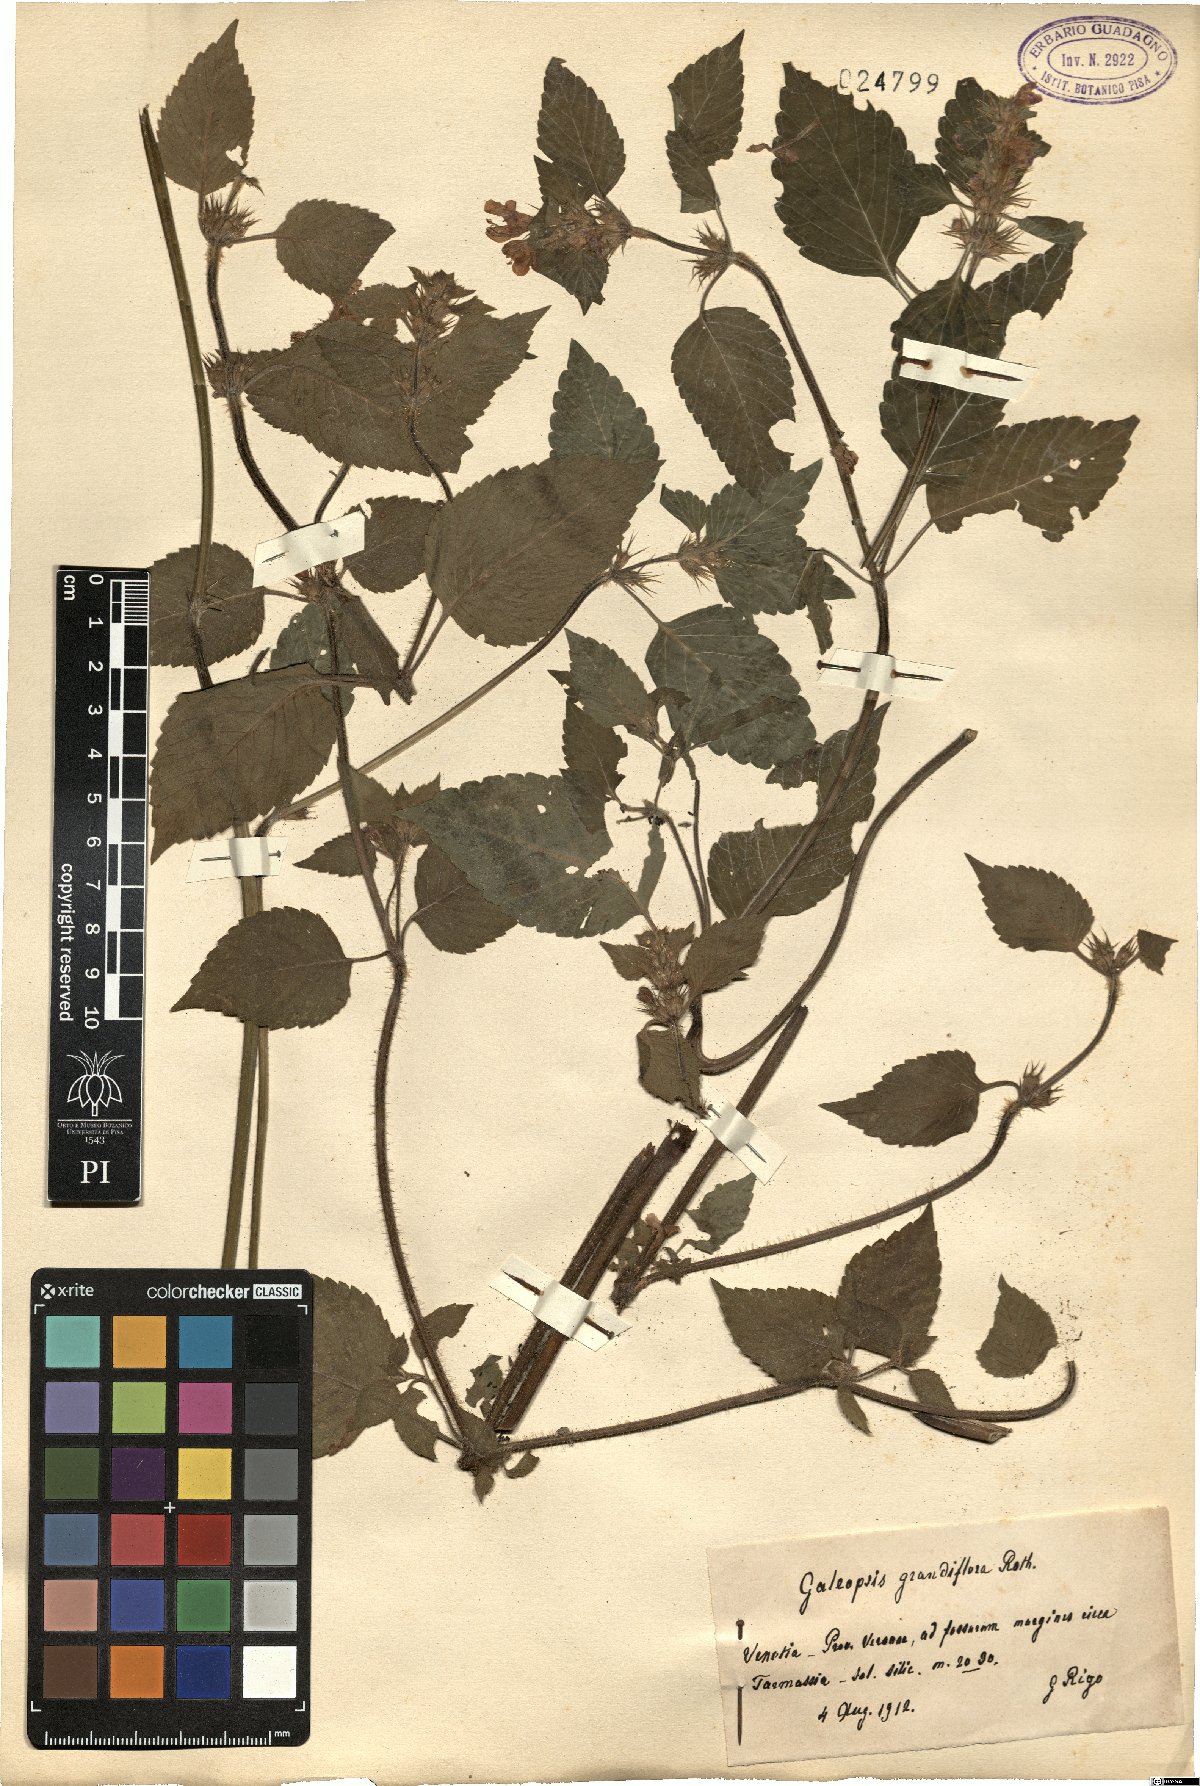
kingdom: Plantae
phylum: Tracheophyta
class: Magnoliopsida
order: Lamiales
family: Lamiaceae
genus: Galeopsis
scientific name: Galeopsis segetum
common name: Downy hemp-nettle
